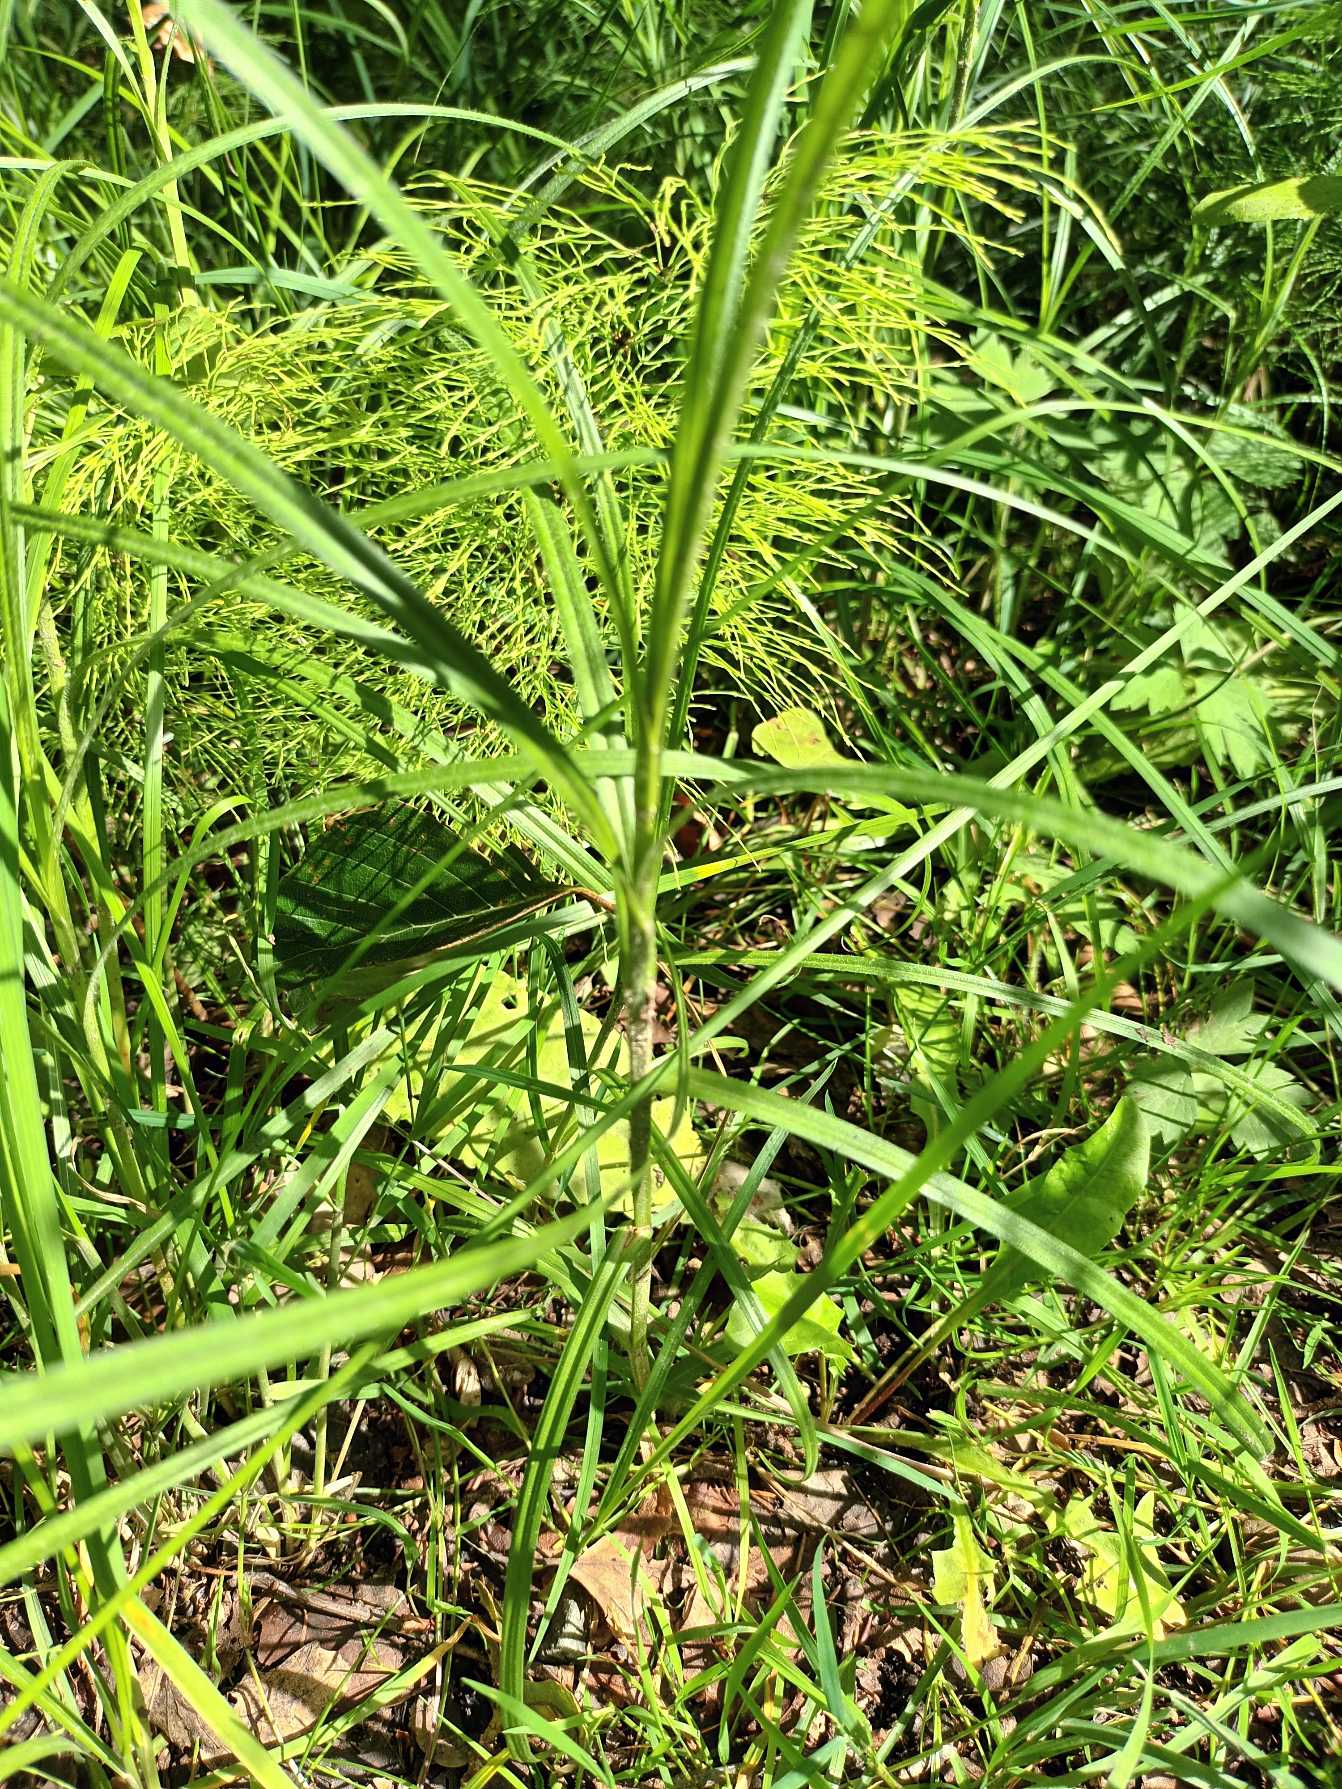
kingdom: Plantae
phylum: Tracheophyta
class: Liliopsida
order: Poales
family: Cyperaceae
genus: Carex
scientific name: Carex hirta
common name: Håret star
